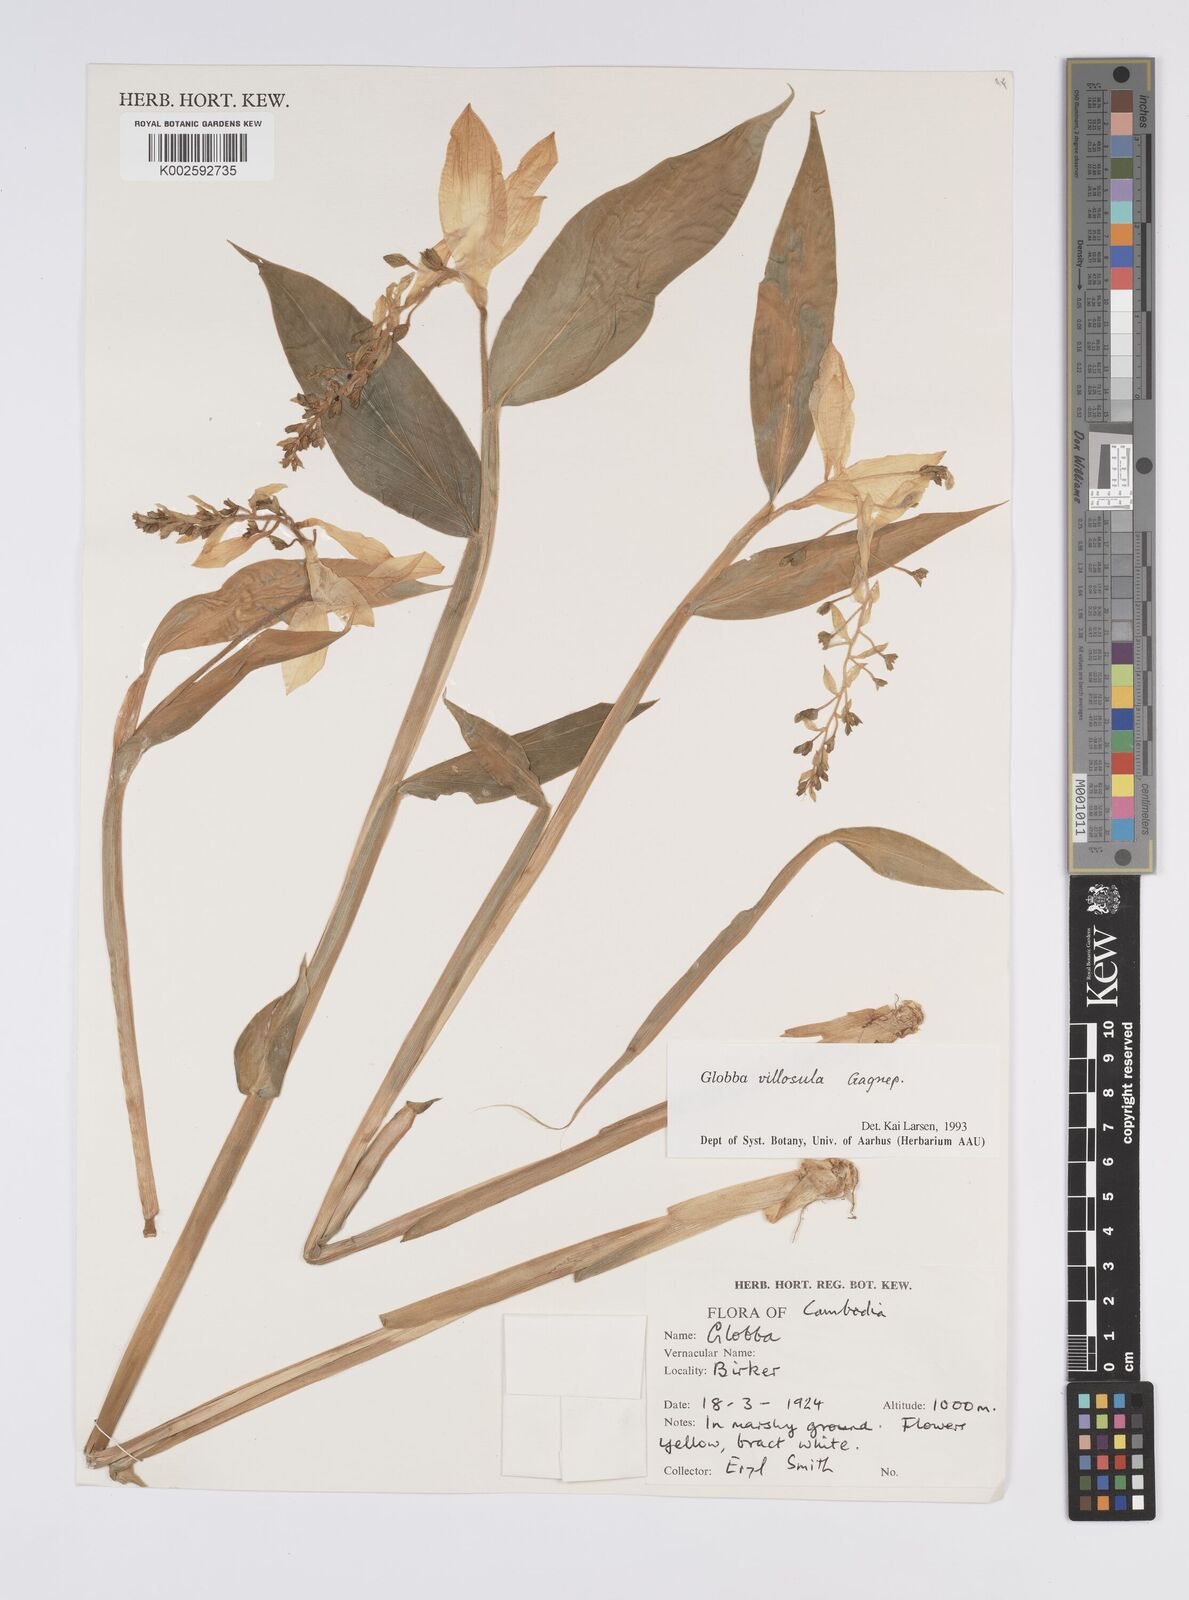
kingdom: Plantae
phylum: Tracheophyta
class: Liliopsida
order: Zingiberales
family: Zingiberaceae
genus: Globba
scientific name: Globba adhaerens
